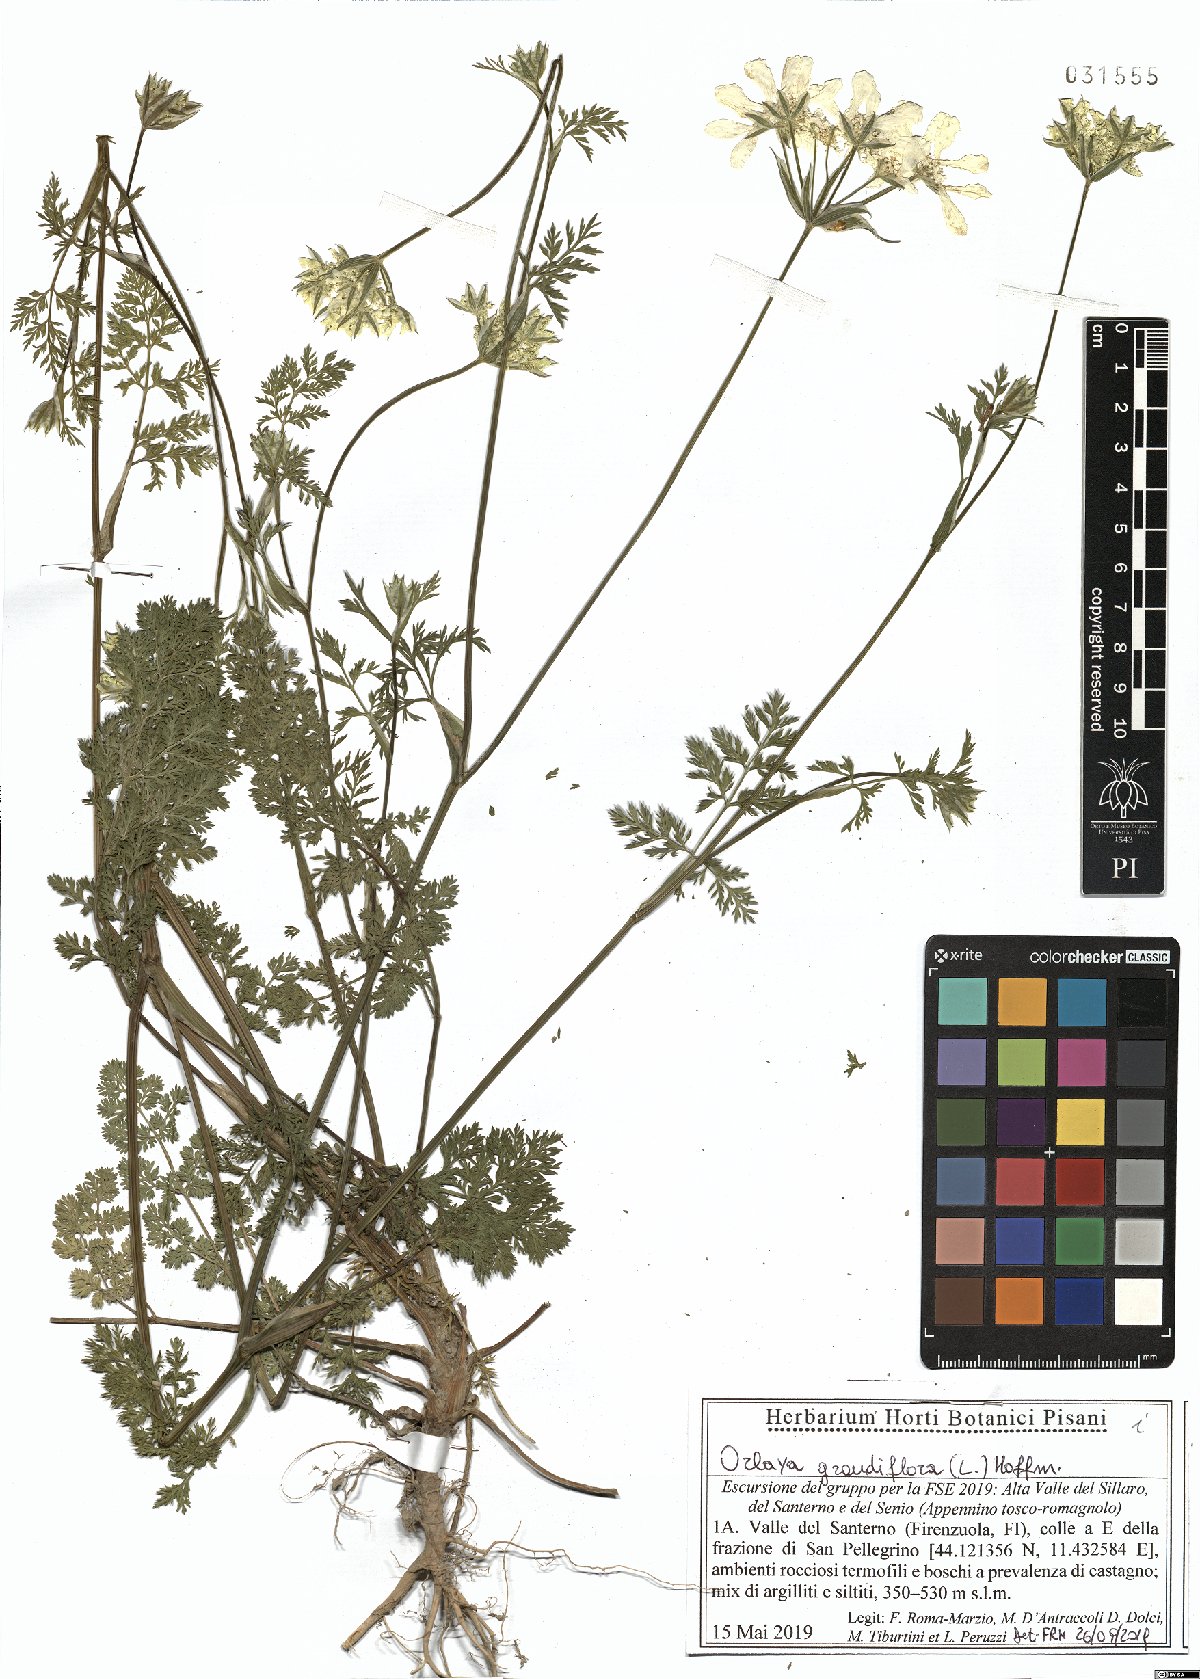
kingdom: Plantae
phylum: Tracheophyta
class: Magnoliopsida
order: Apiales
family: Apiaceae
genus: Orlaya
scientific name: Orlaya grandiflora
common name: White lace flower
